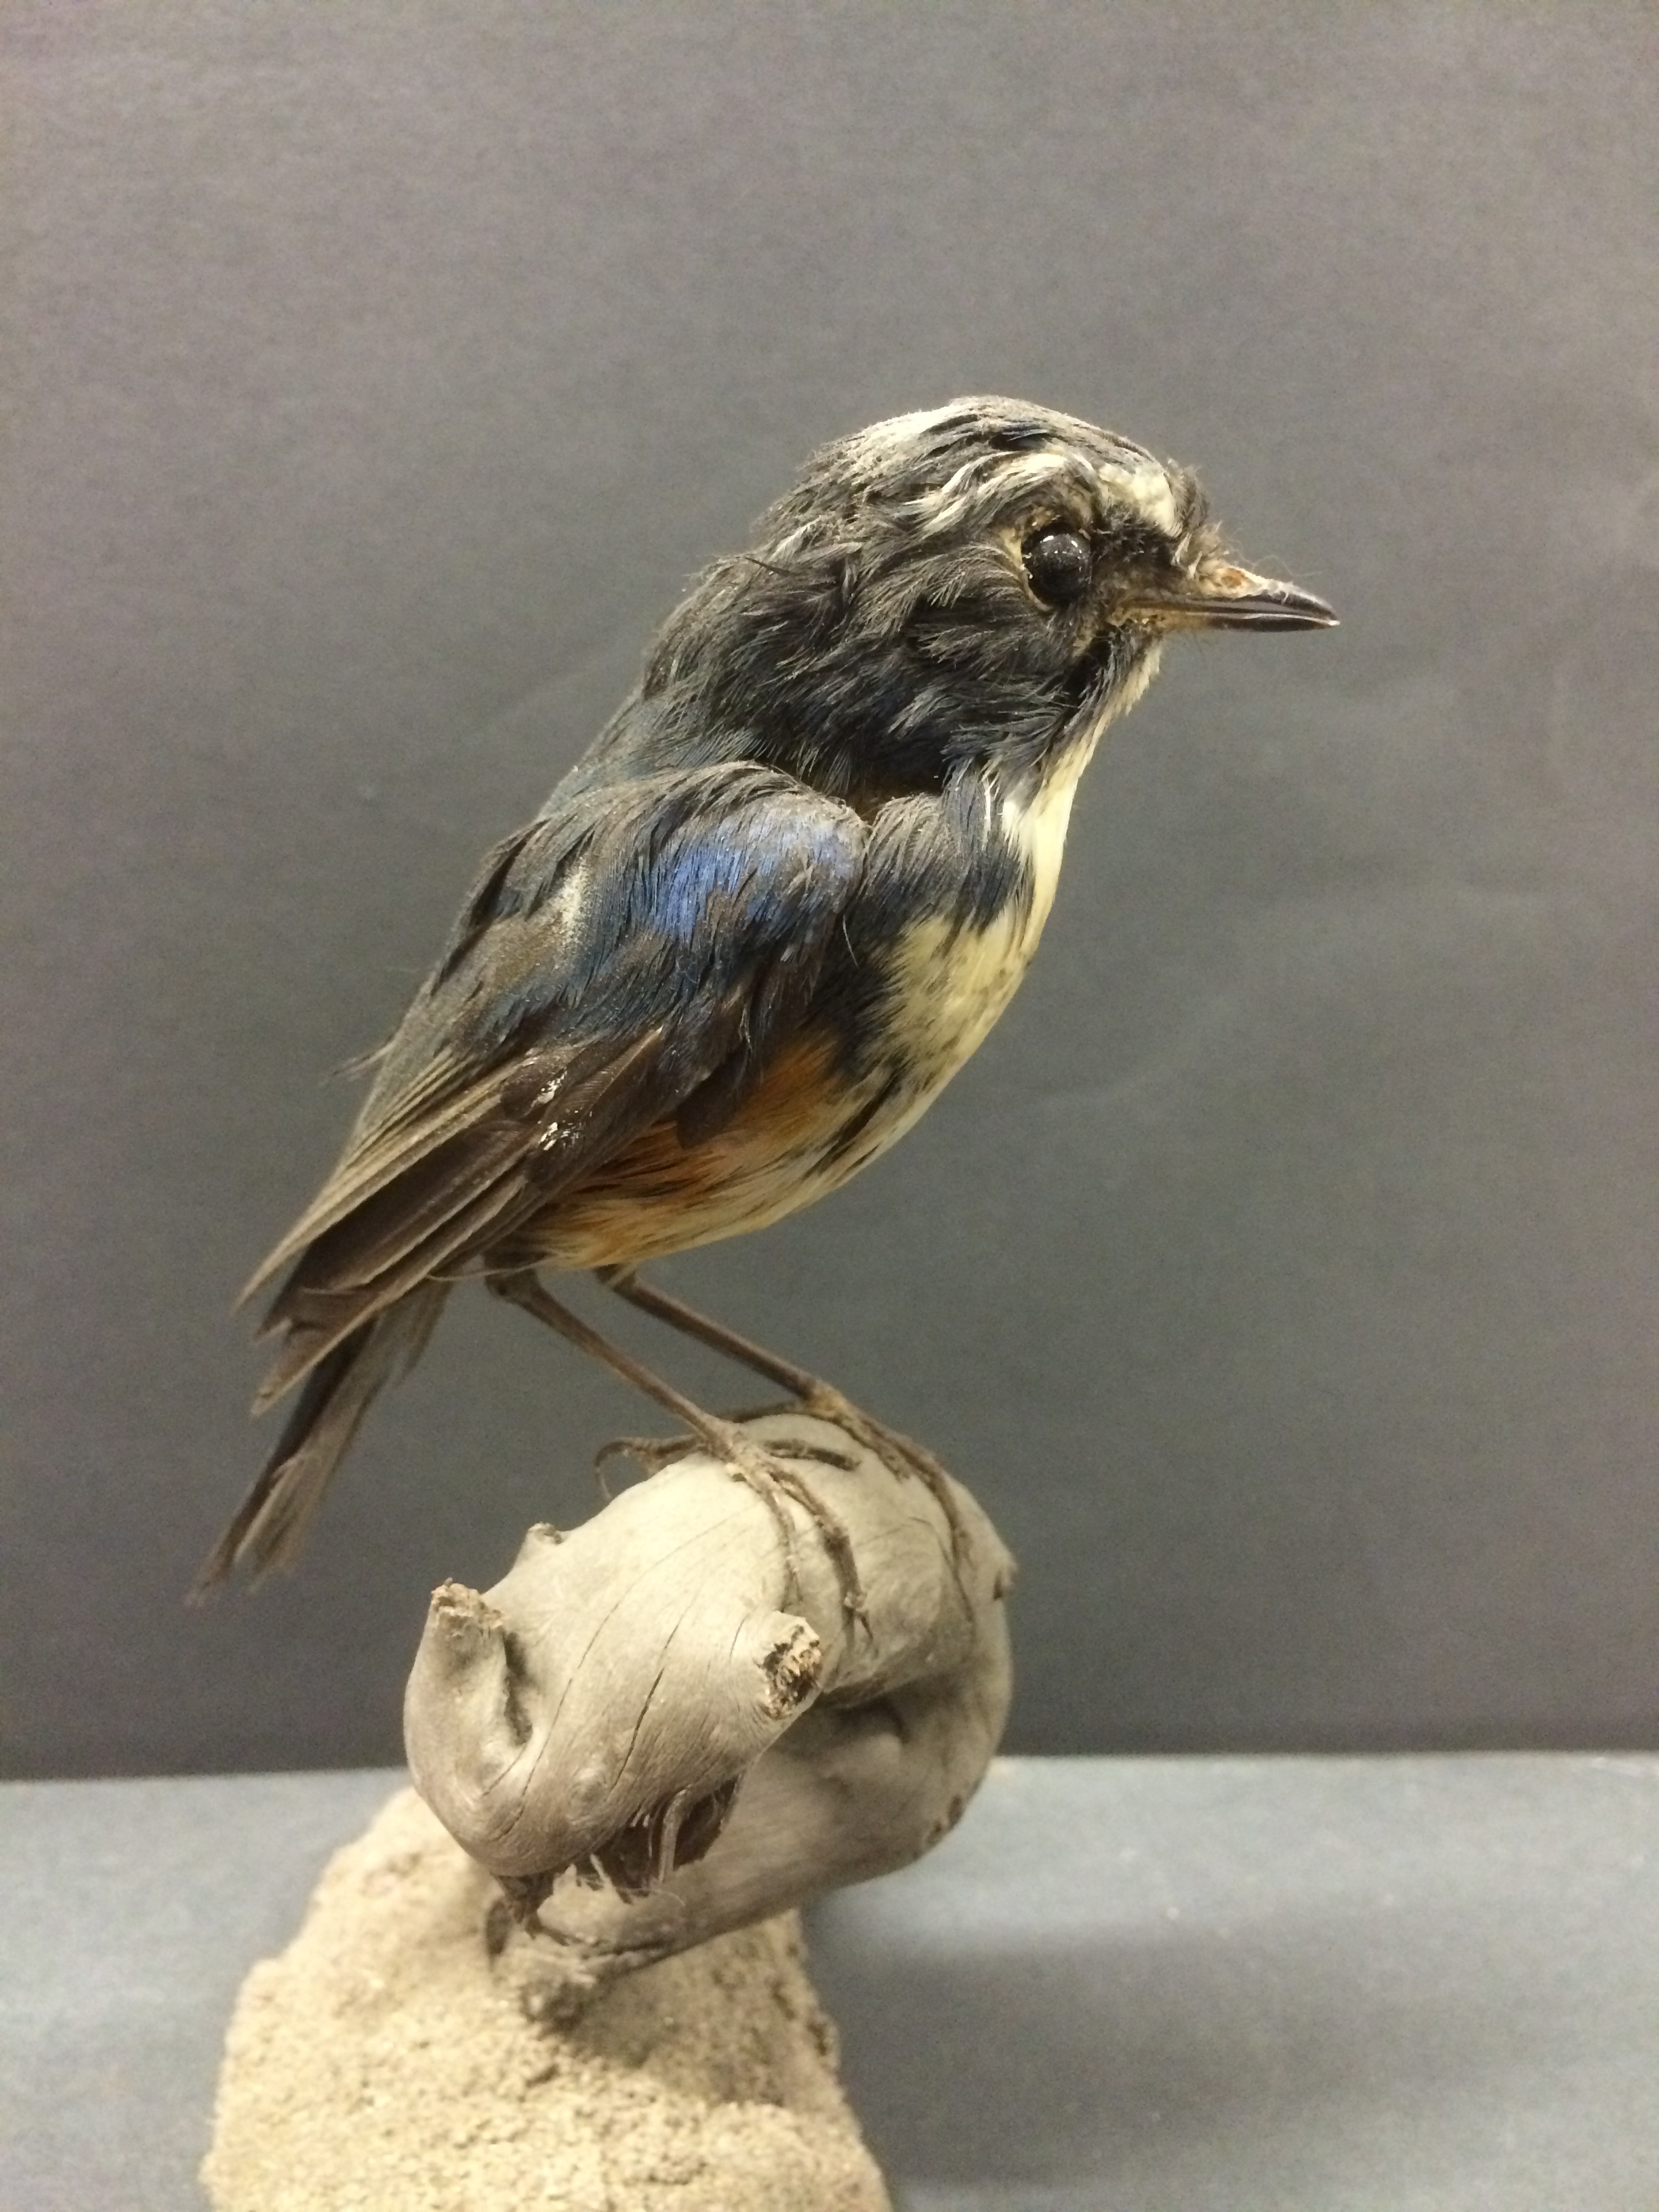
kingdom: Animalia
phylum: Chordata
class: Aves
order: Passeriformes
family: Muscicapidae
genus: Tarsiger
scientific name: Tarsiger cyanurus
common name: Red-flanked bluetail
